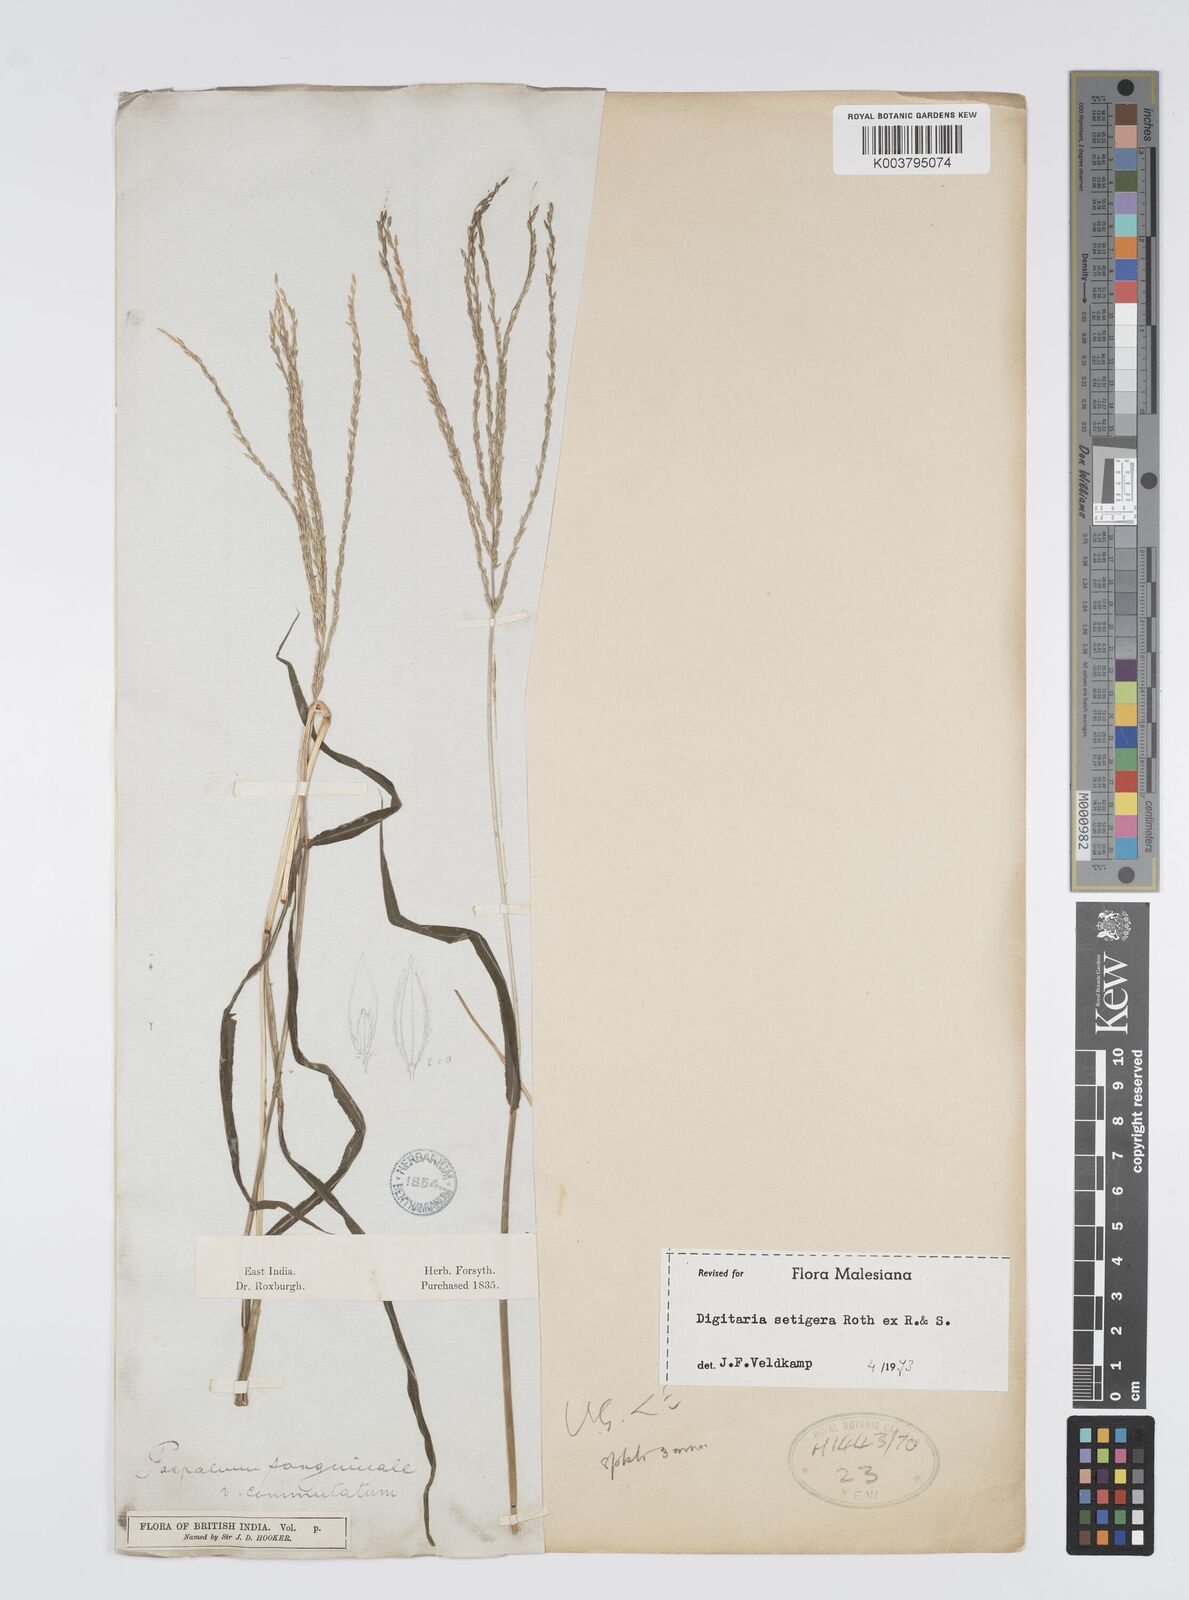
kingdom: Plantae
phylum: Tracheophyta
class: Liliopsida
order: Poales
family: Poaceae
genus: Digitaria
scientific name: Digitaria setigera
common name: East indian crabgrass
